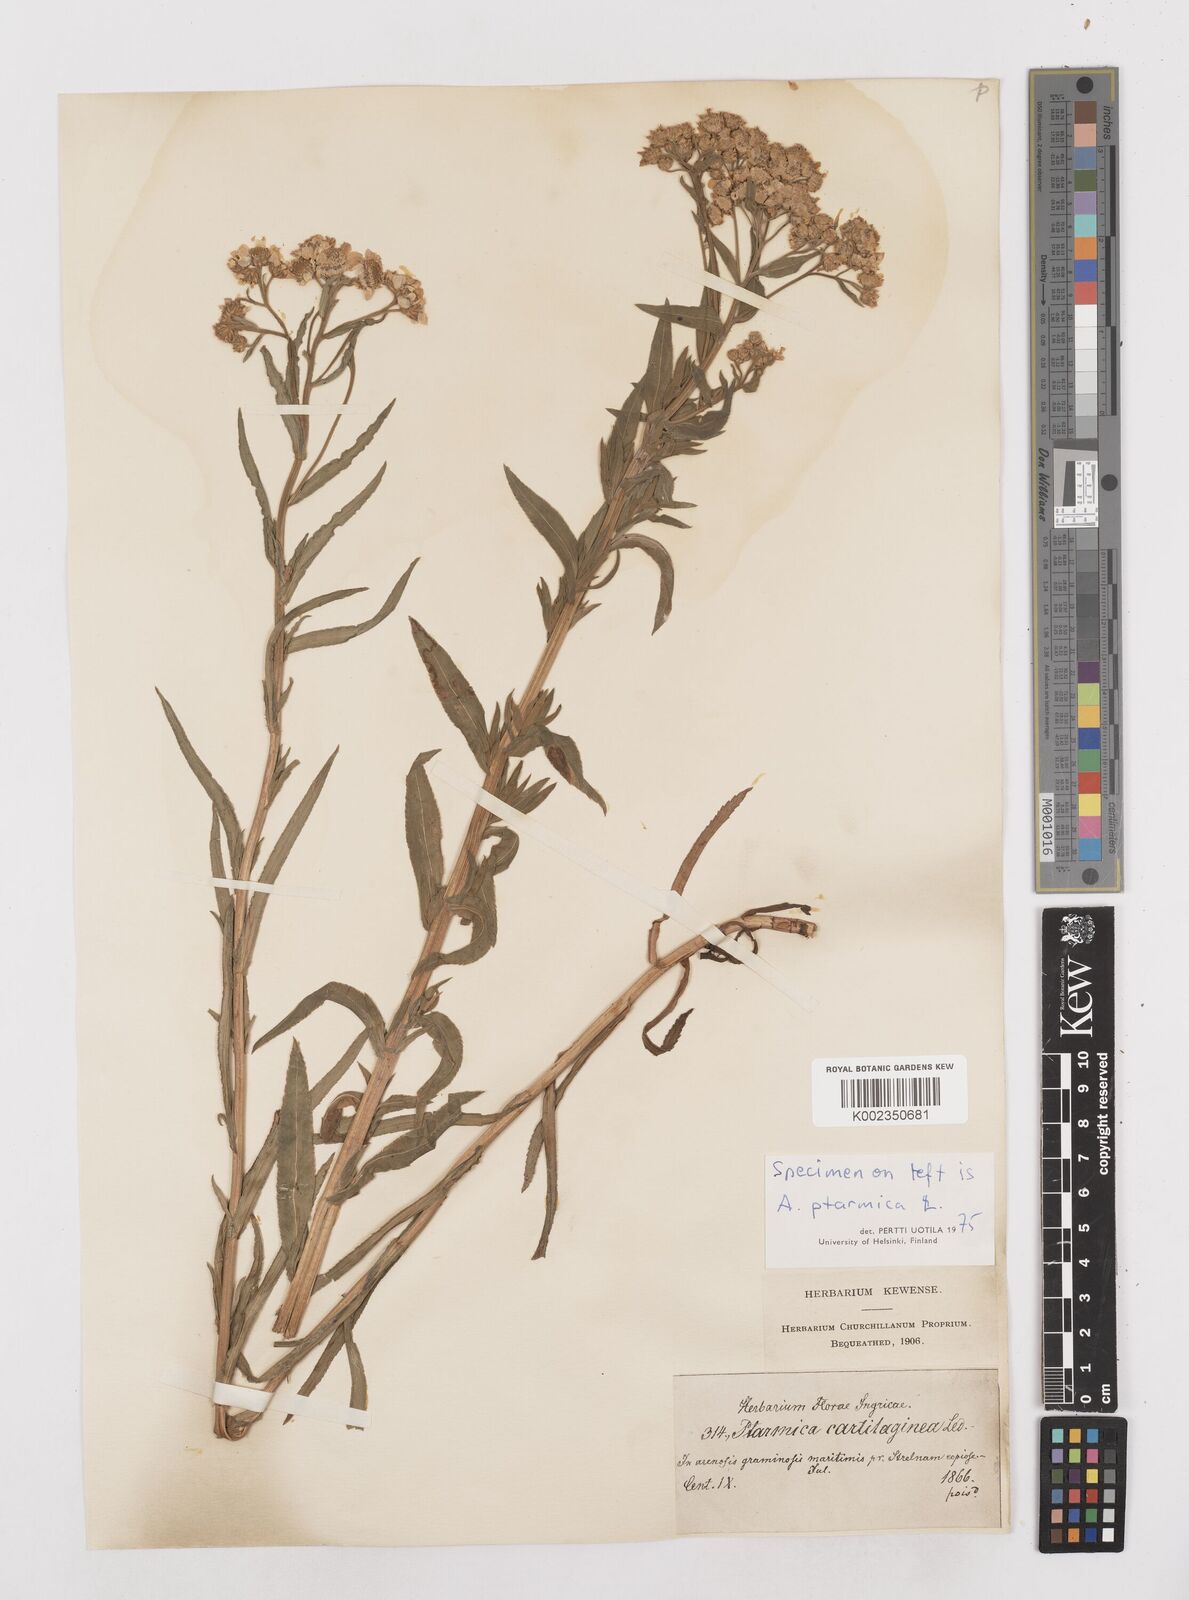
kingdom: Plantae
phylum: Tracheophyta
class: Magnoliopsida
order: Asterales
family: Asteraceae
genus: Achillea
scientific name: Achillea salicifolia
